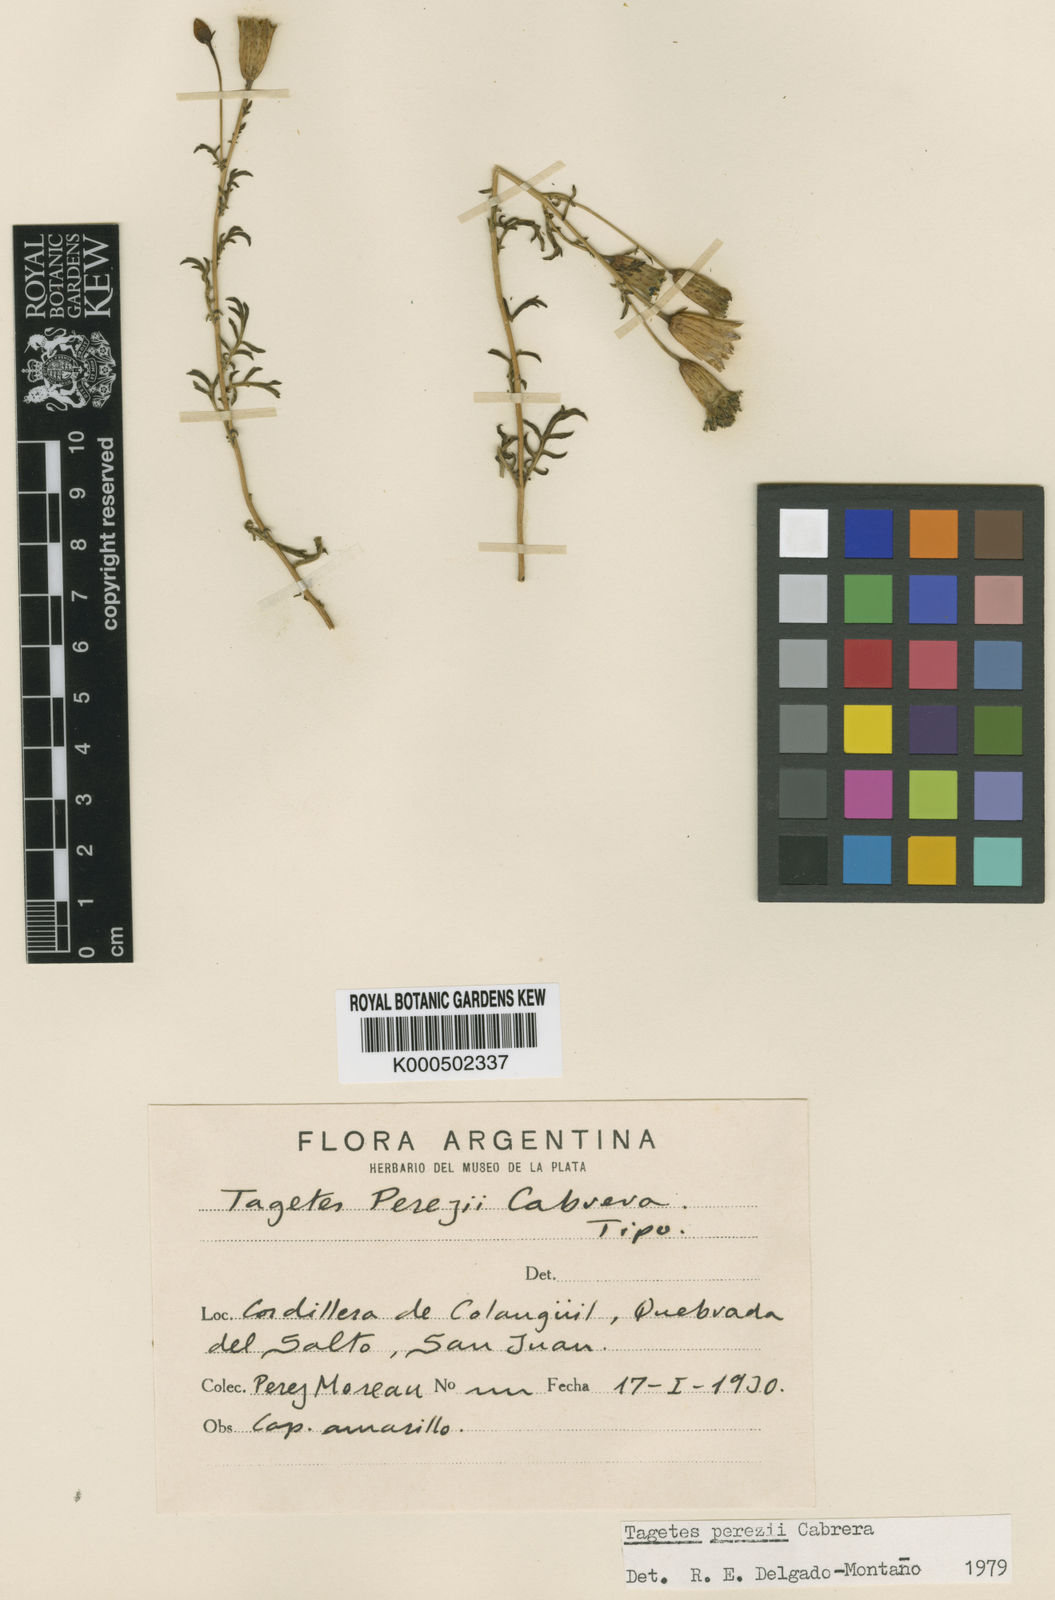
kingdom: Plantae
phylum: Tracheophyta
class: Magnoliopsida
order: Asterales
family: Asteraceae
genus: Tagetes
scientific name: Tagetes perezii
